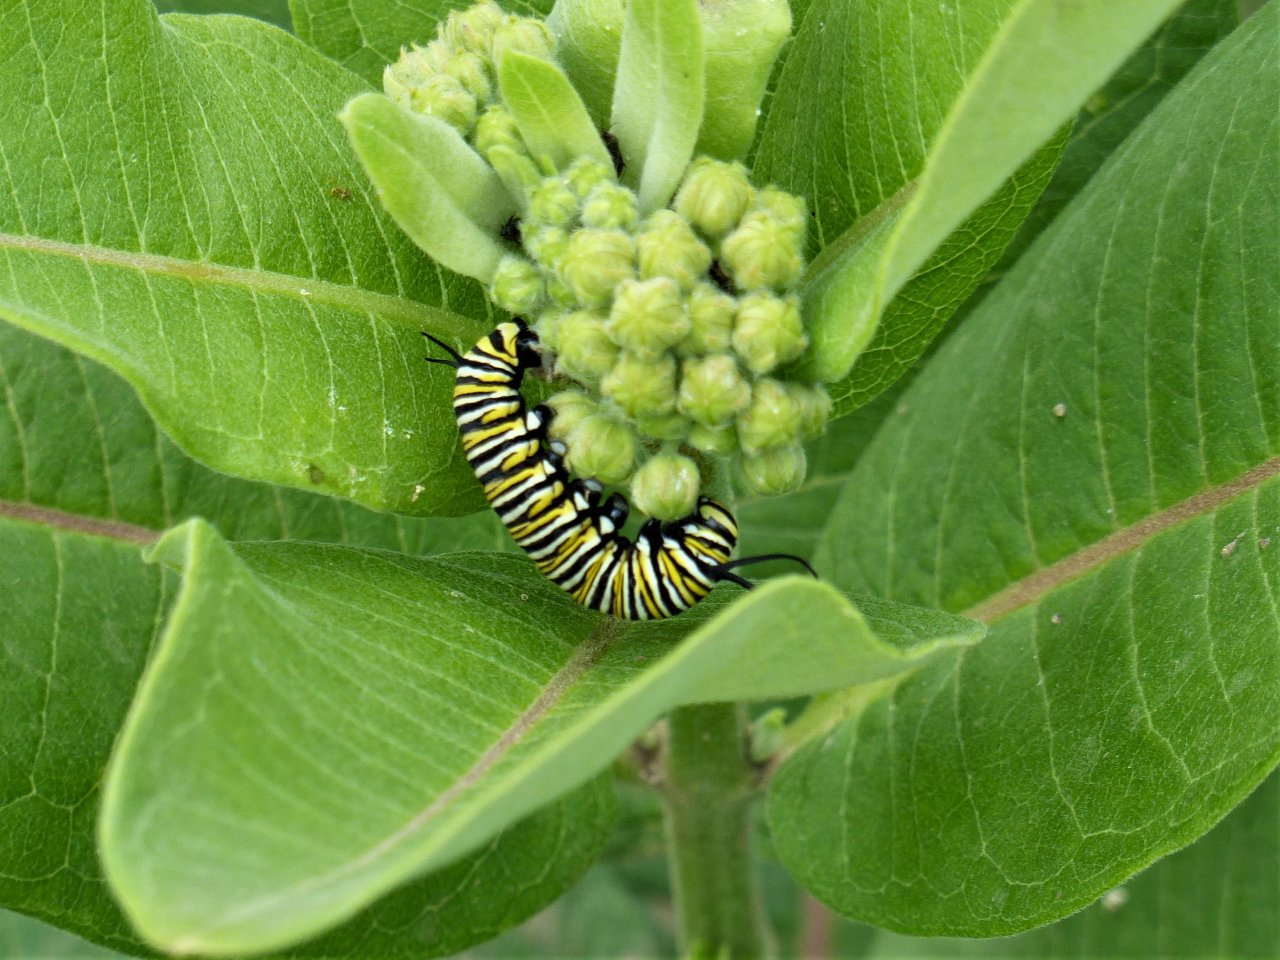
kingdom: Animalia
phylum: Arthropoda
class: Insecta
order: Lepidoptera
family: Nymphalidae
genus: Danaus
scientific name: Danaus plexippus
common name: Monarch
